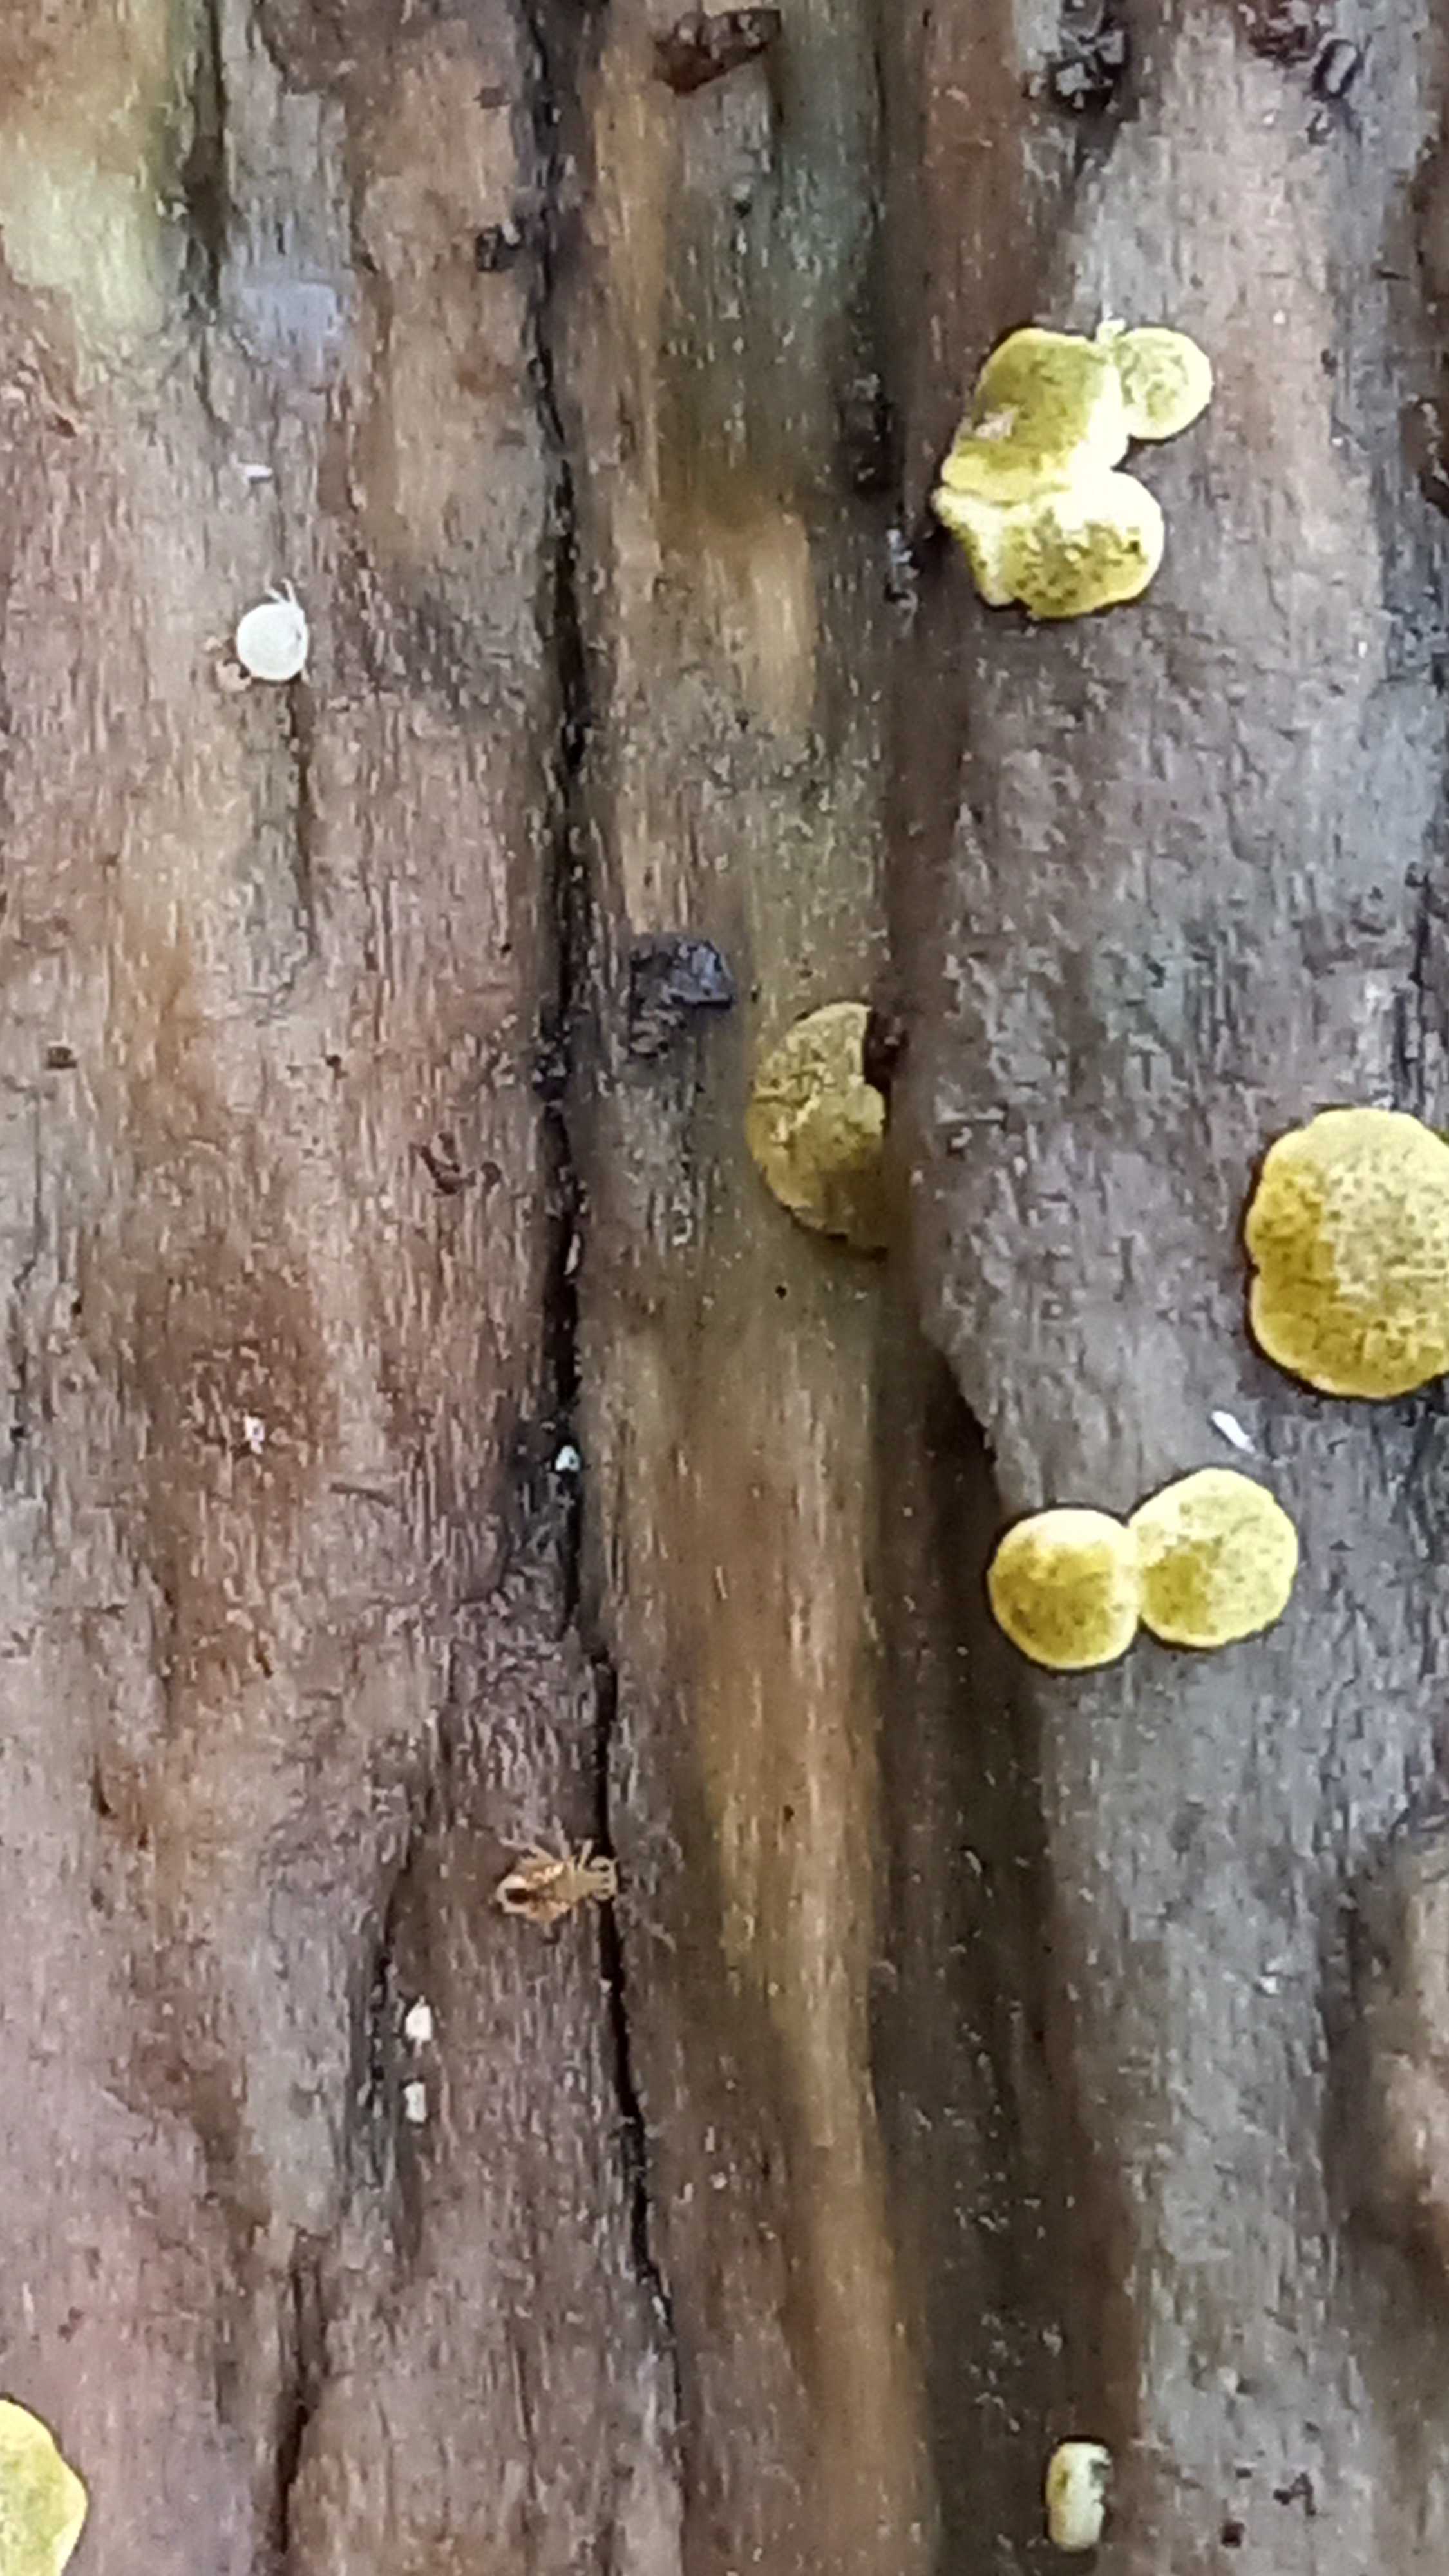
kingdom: Fungi
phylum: Ascomycota
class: Sordariomycetes
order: Hypocreales
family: Hypocreaceae
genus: Trichoderma
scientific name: Trichoderma aureoviride
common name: æggegul kødkerne
